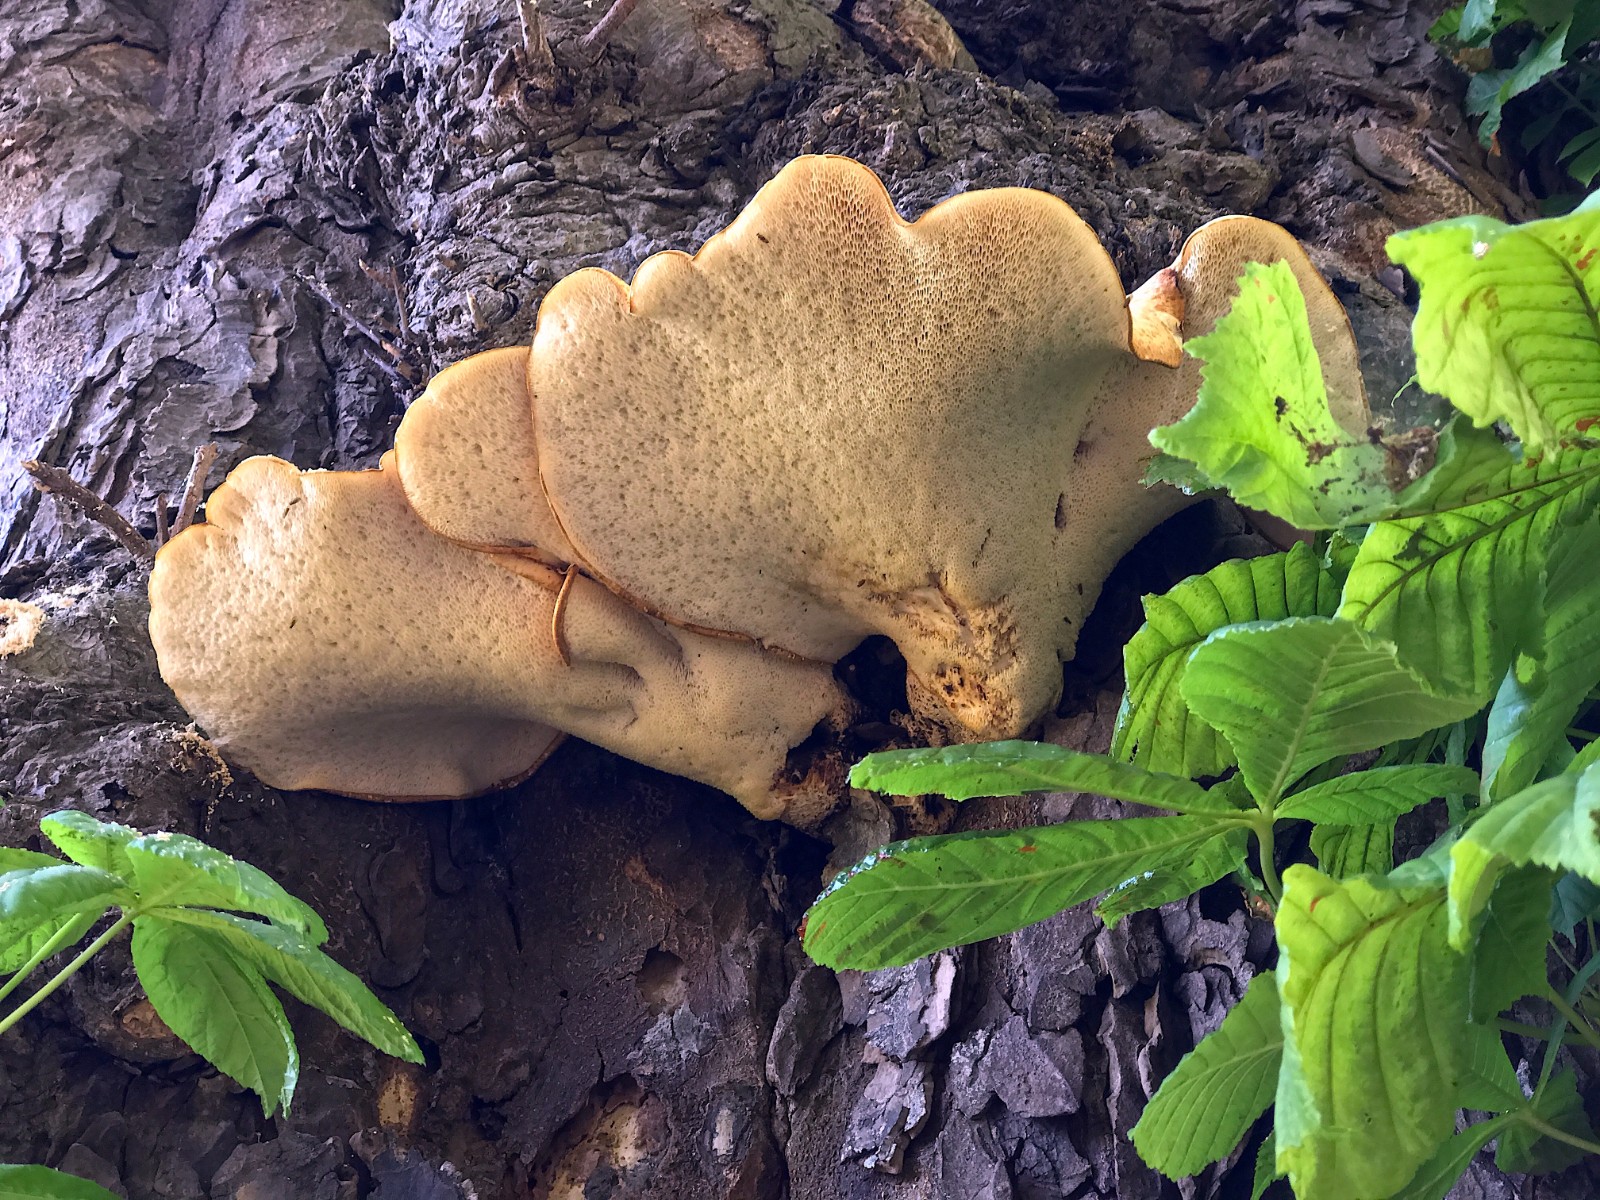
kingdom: Fungi
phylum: Basidiomycota
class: Agaricomycetes
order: Polyporales
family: Polyporaceae
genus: Cerioporus
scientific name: Cerioporus squamosus
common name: skællet stilkporesvamp
